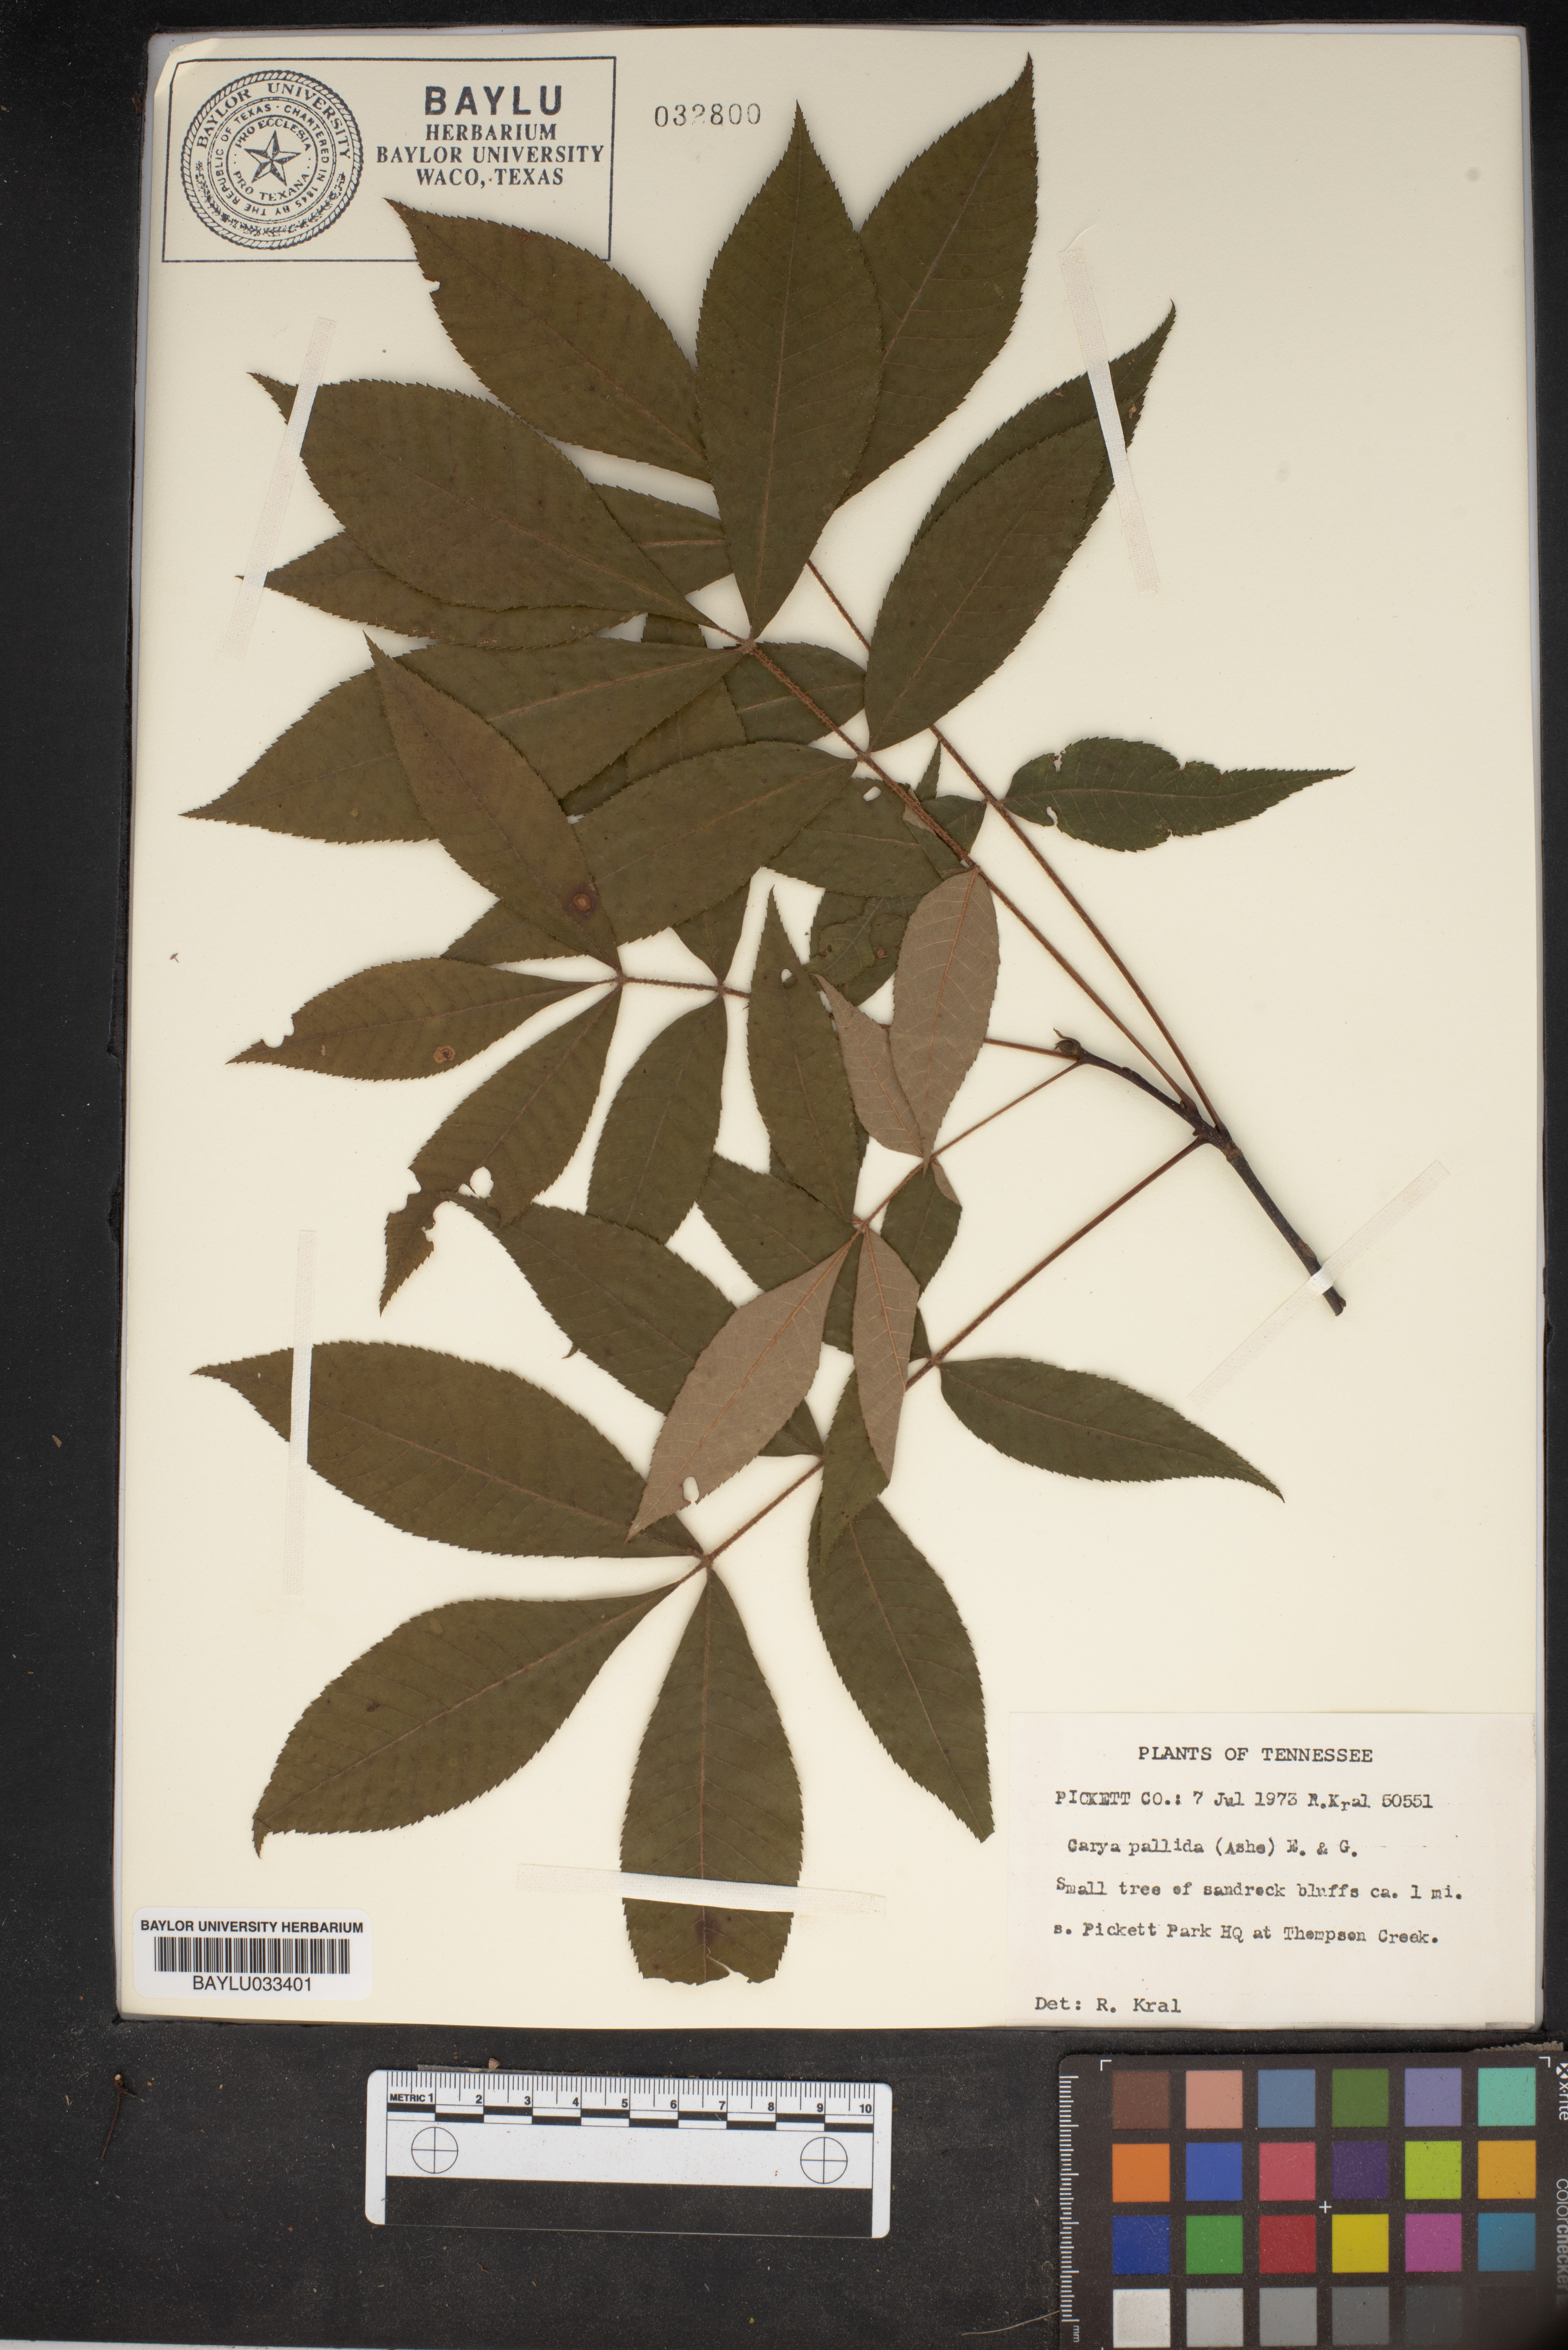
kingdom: Plantae
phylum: Tracheophyta
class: Magnoliopsida
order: Fagales
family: Juglandaceae
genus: Carya
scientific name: Carya pallida
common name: Sand hickory
